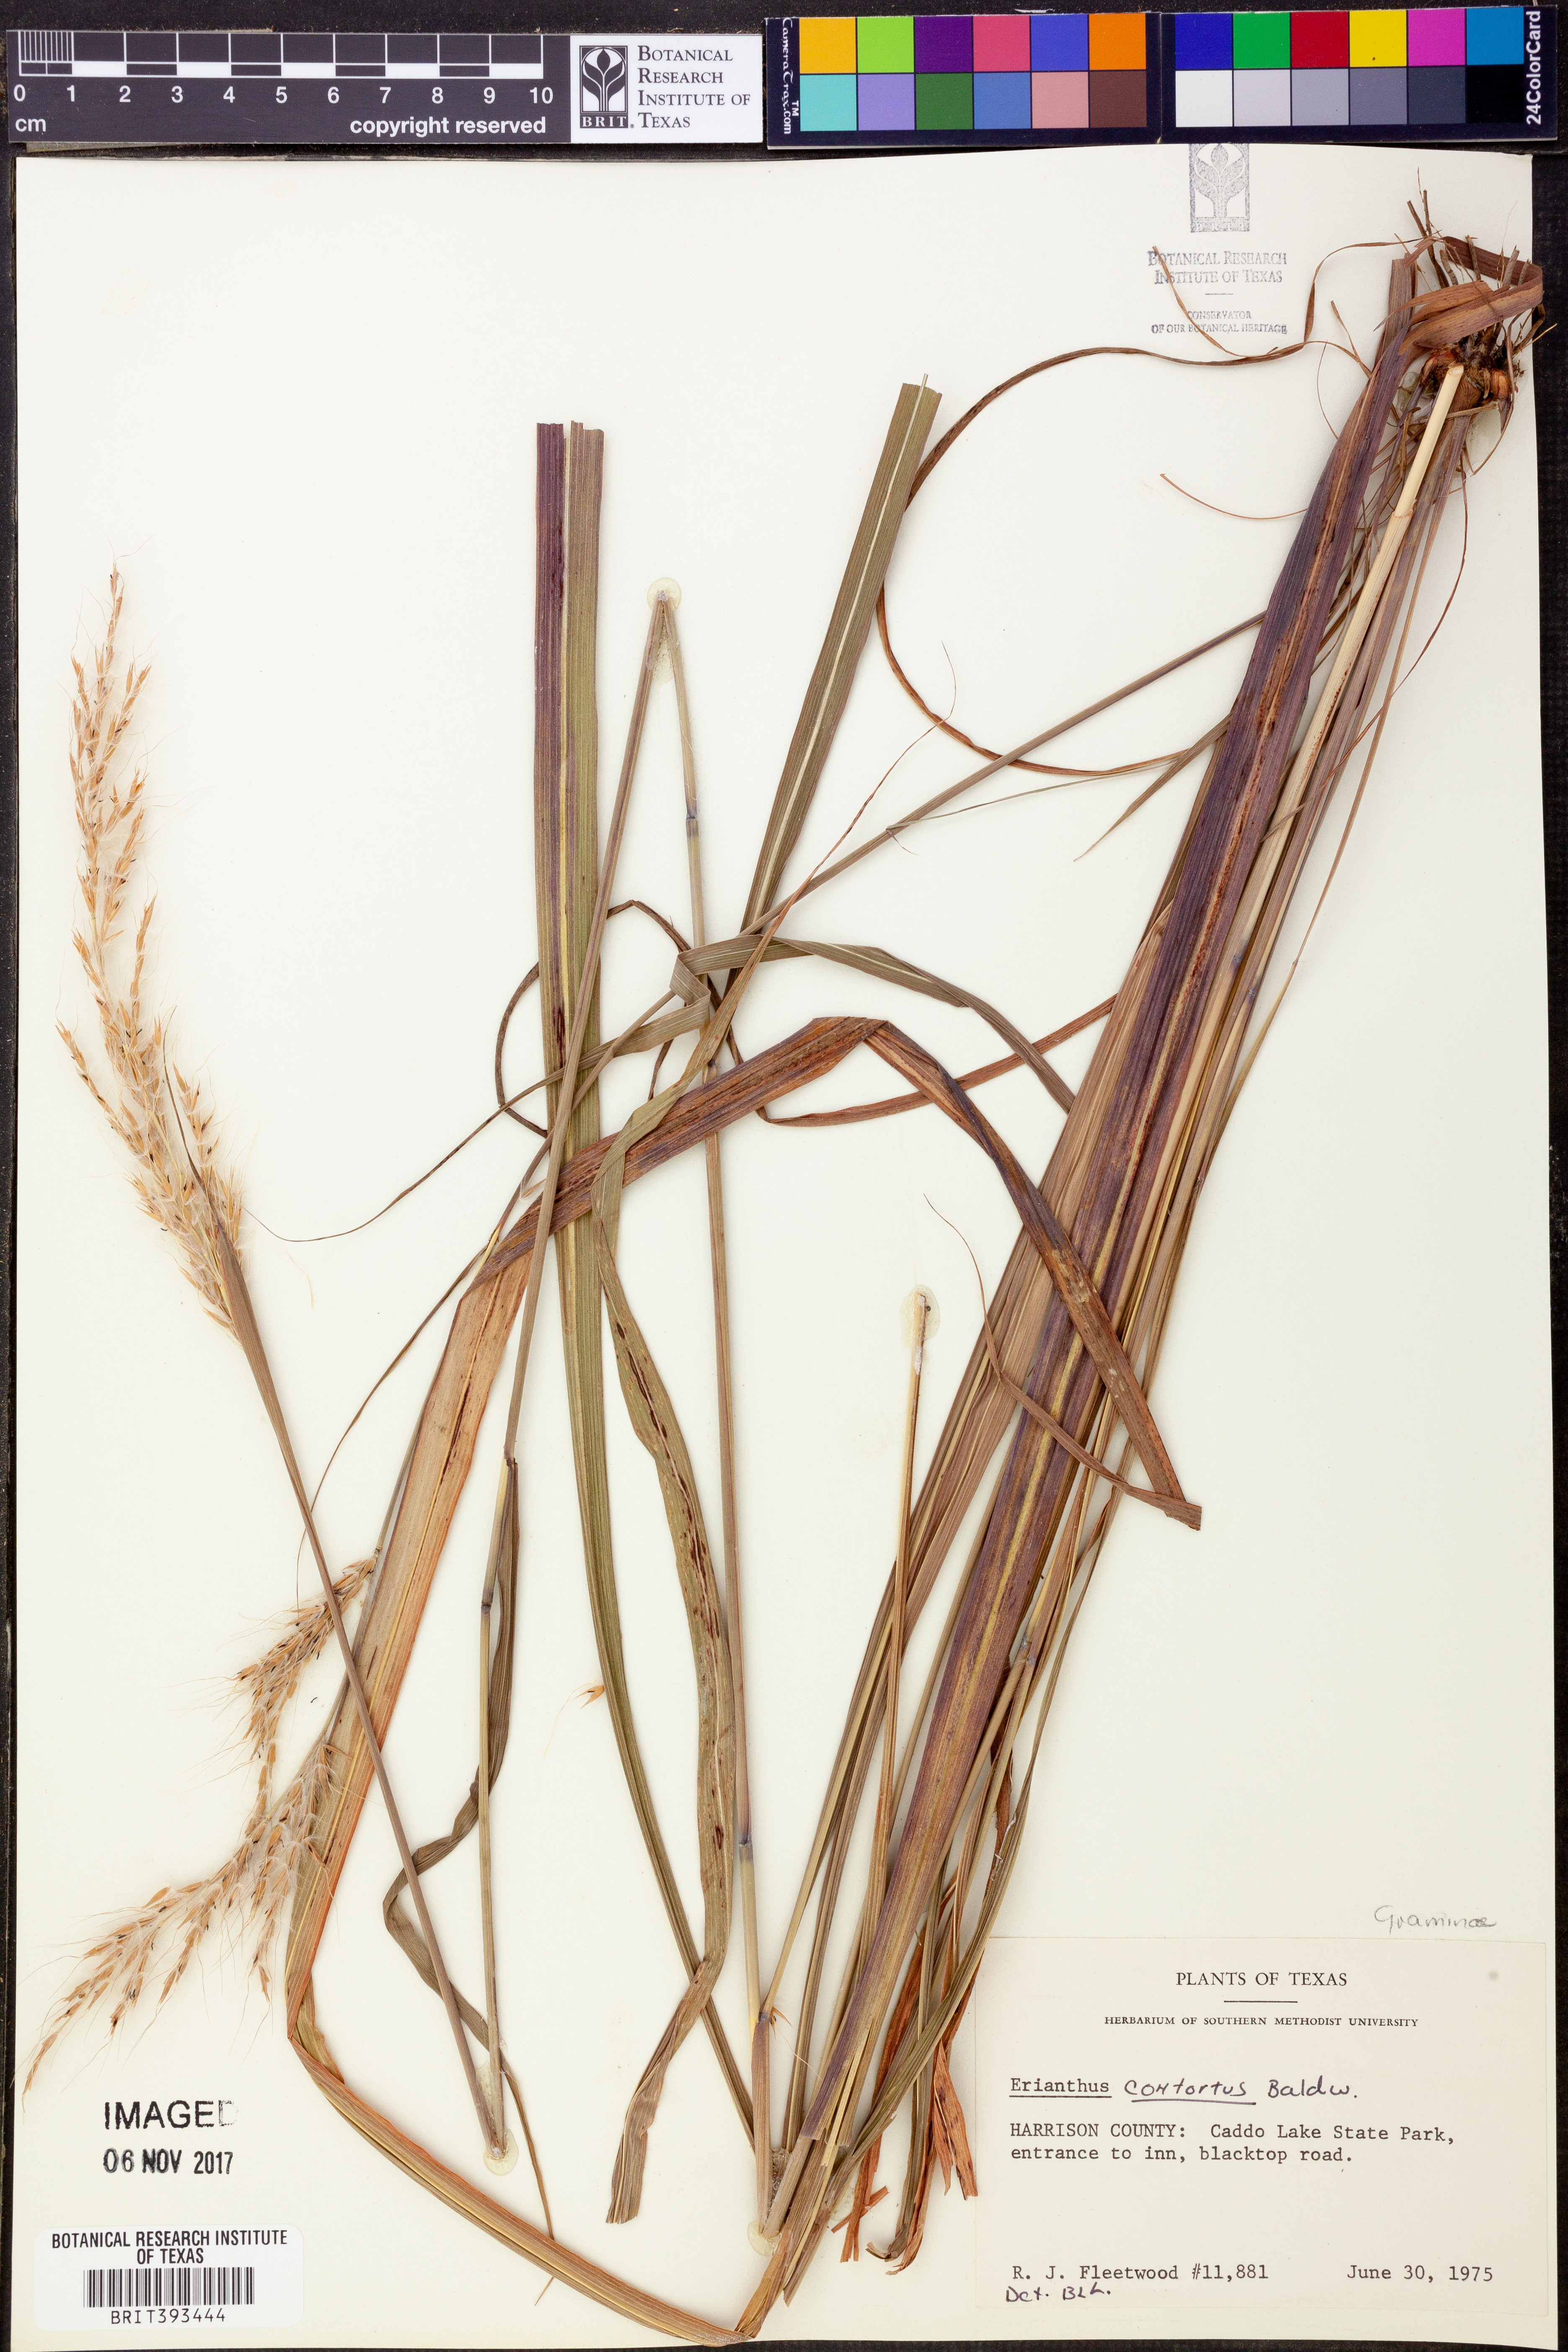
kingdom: Plantae
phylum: Tracheophyta
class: Liliopsida
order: Poales
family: Poaceae
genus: Erianthus
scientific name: Erianthus contortus
